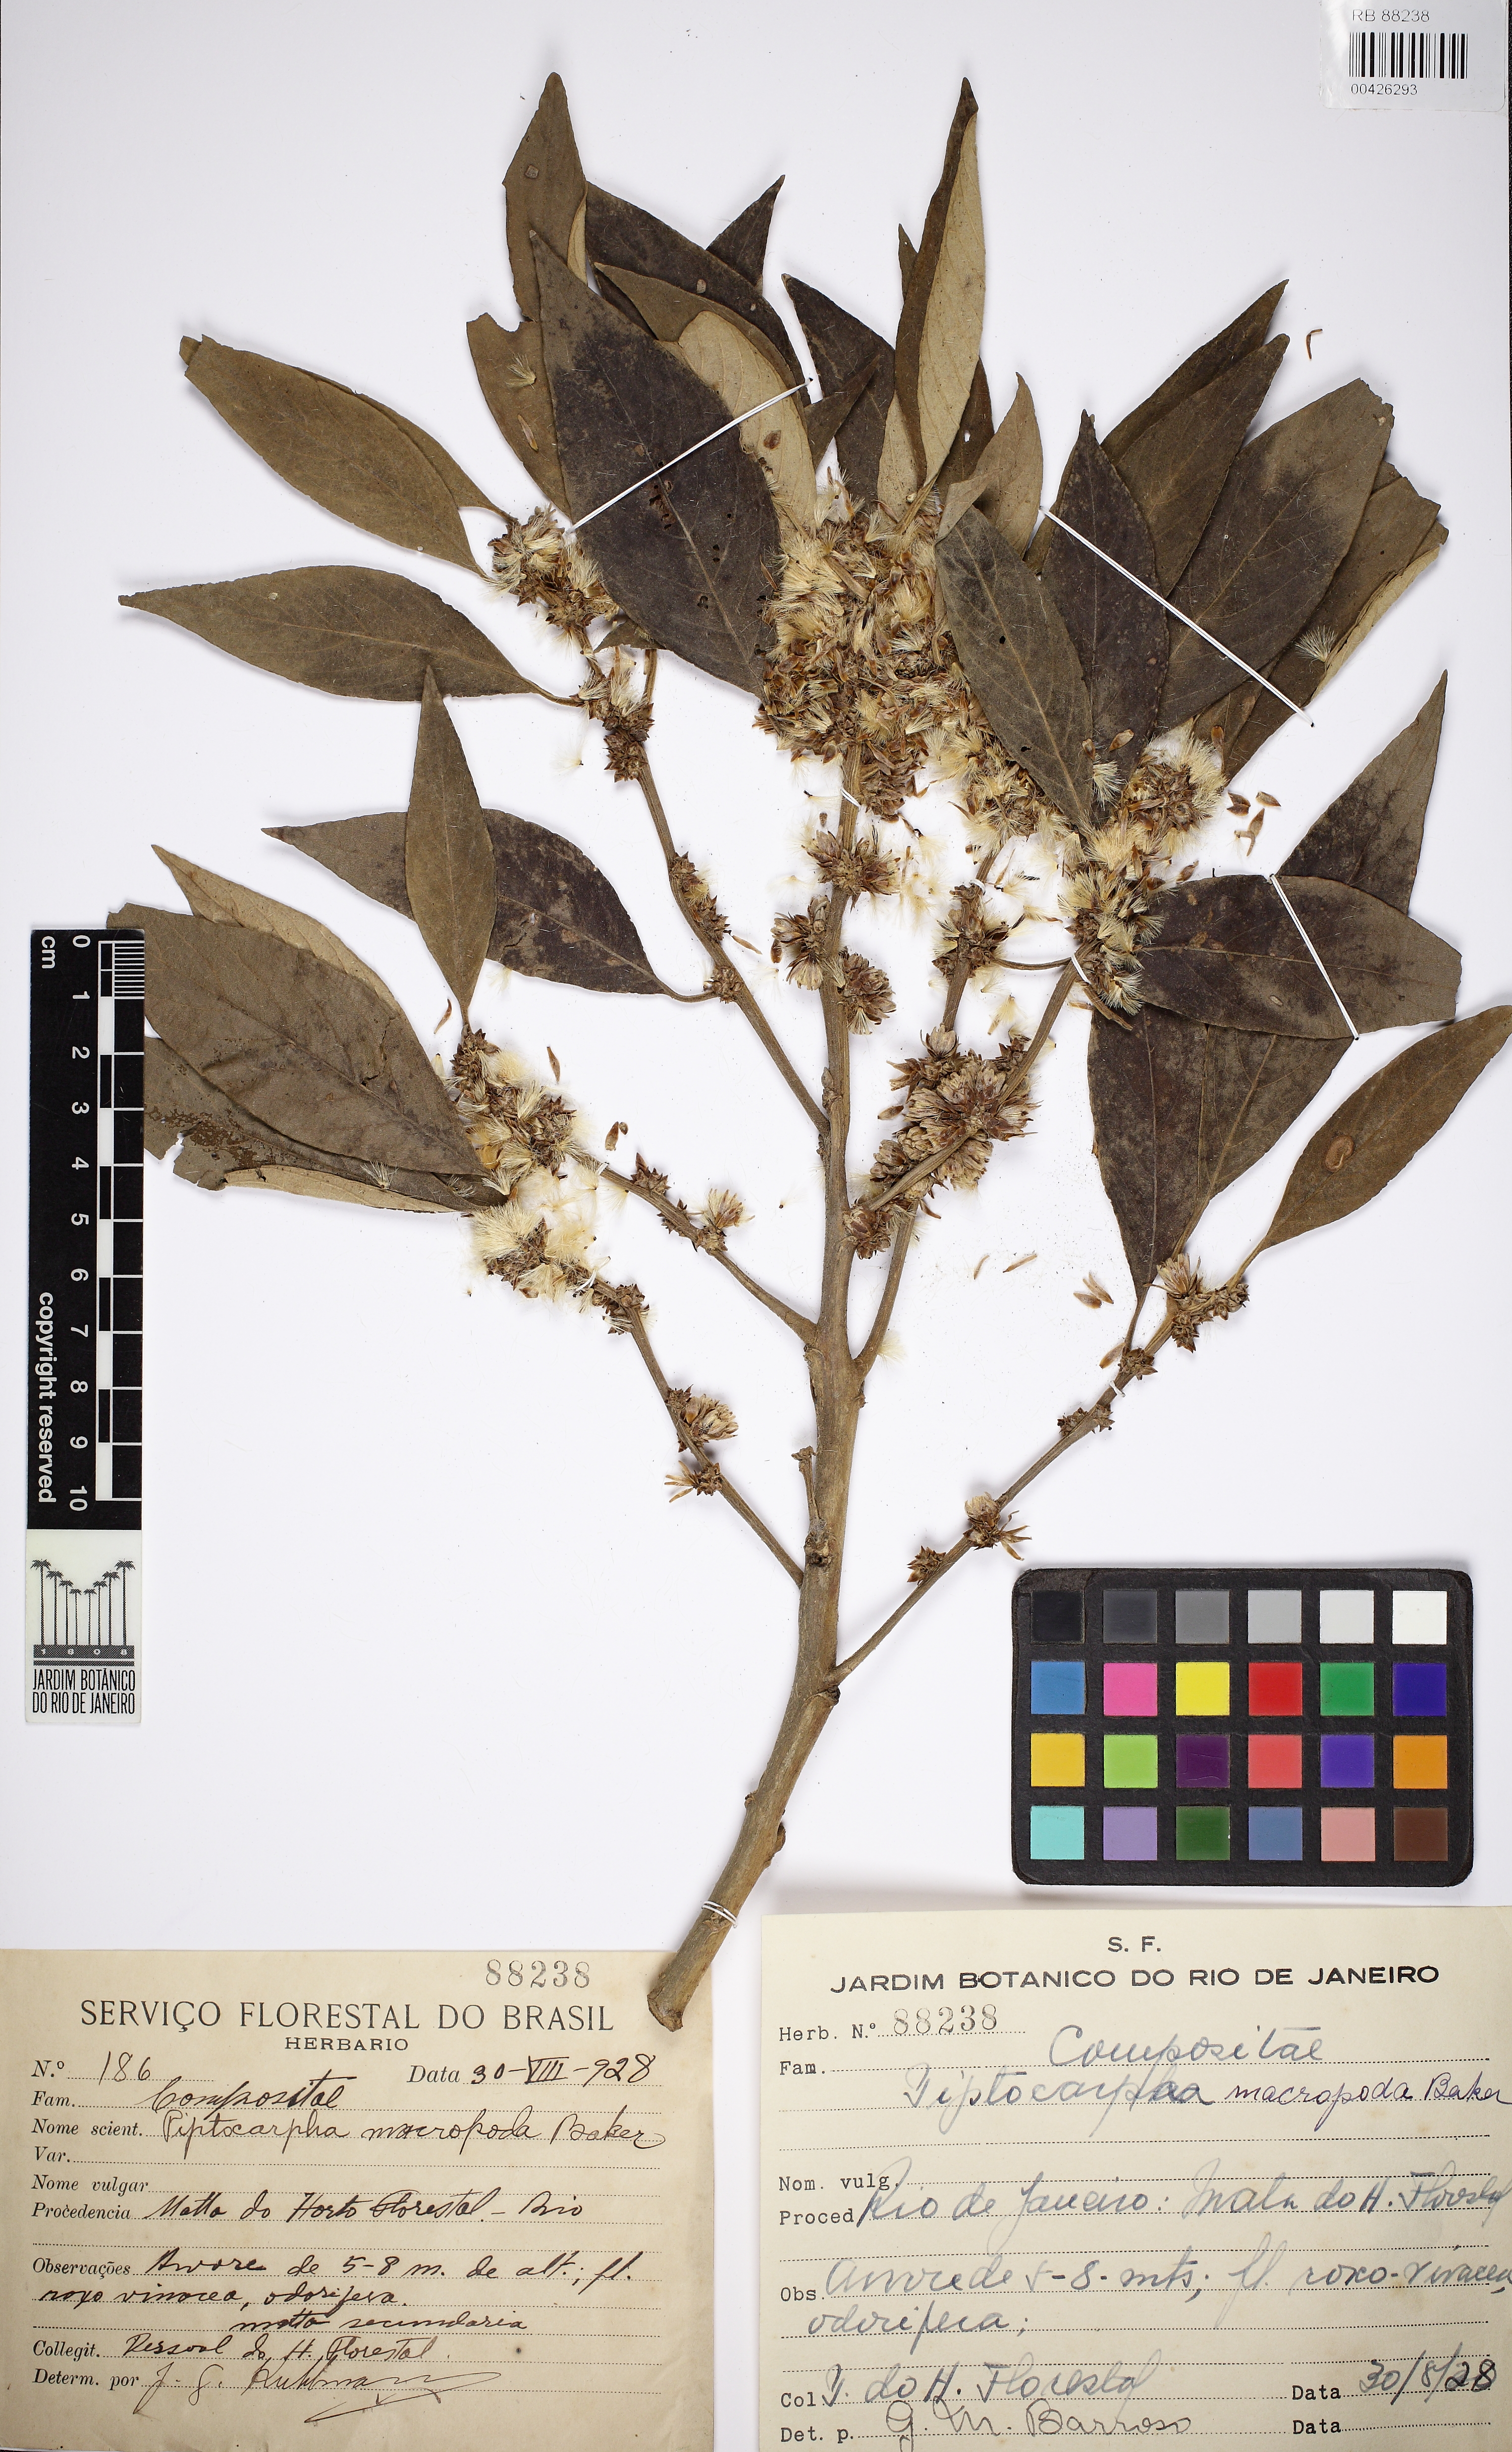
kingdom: Plantae
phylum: Tracheophyta
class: Magnoliopsida
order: Asterales
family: Asteraceae
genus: Piptocarpha
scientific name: Piptocarpha macropoda
